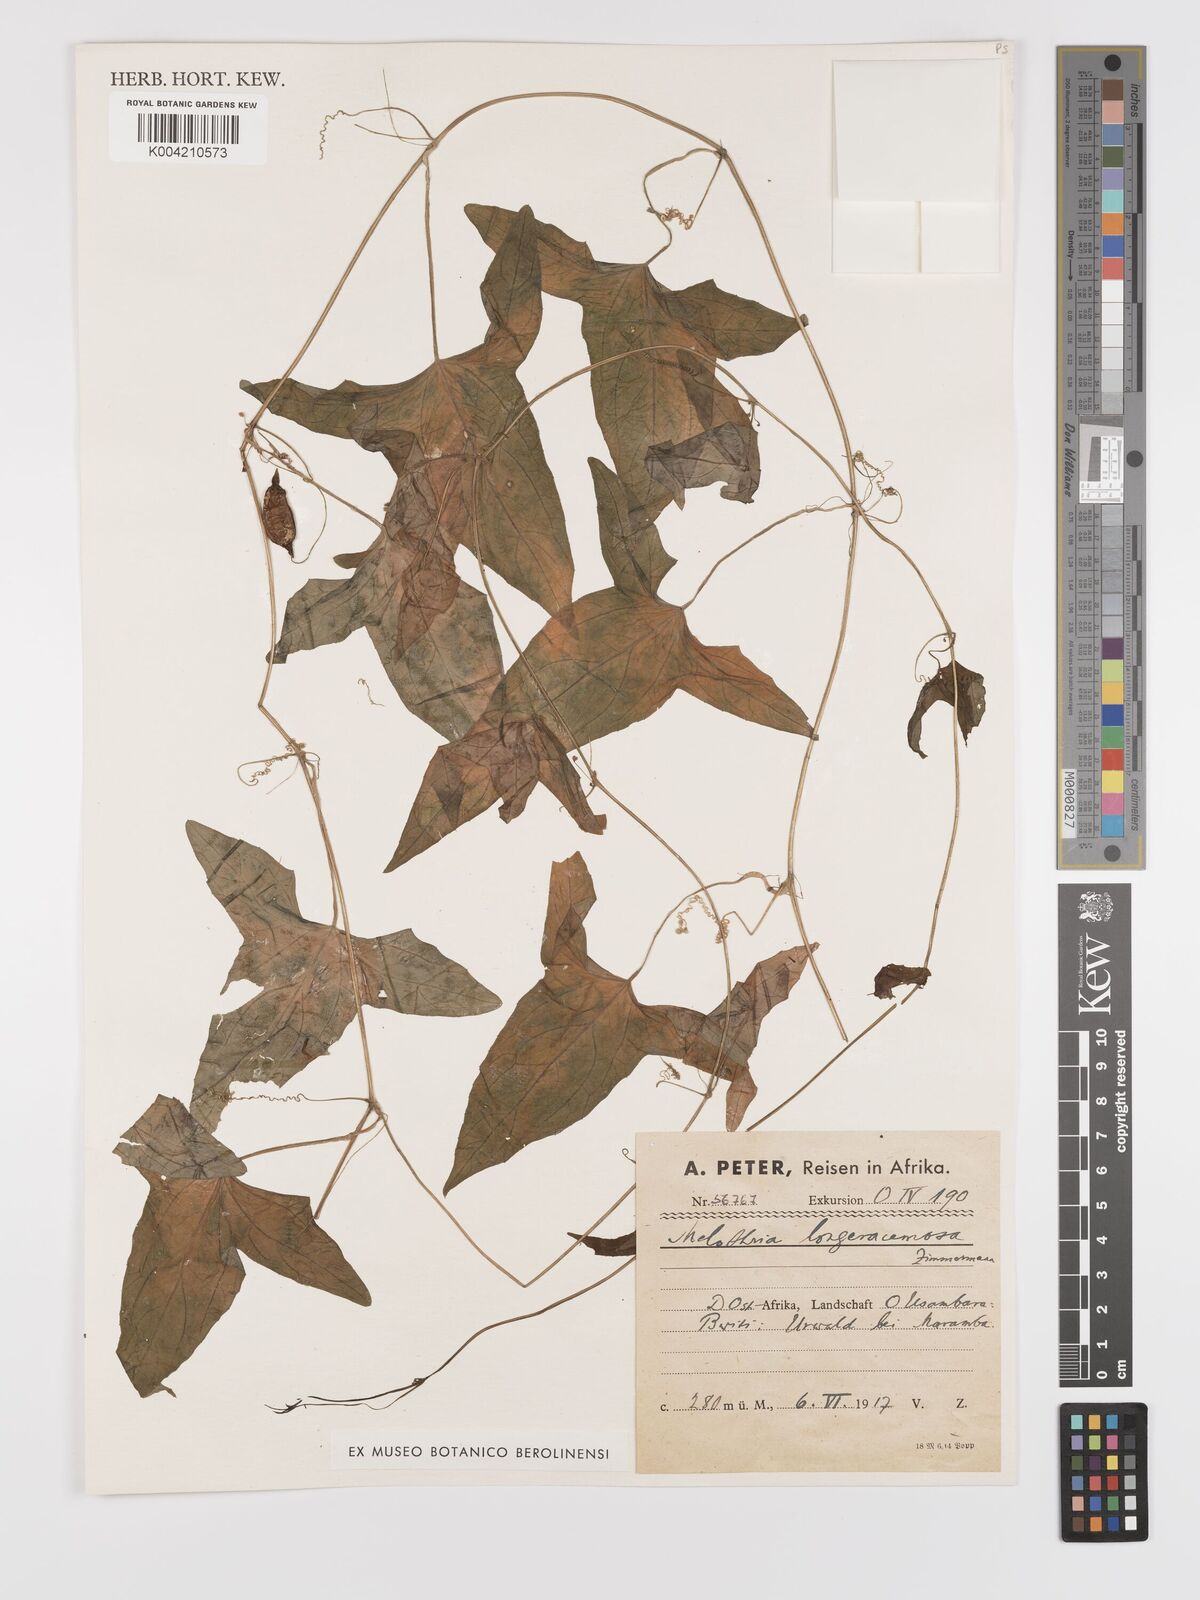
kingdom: Plantae
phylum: Tracheophyta
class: Magnoliopsida
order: Cucurbitales
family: Cucurbitaceae
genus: Zehneria
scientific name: Zehneria thwaitesii
